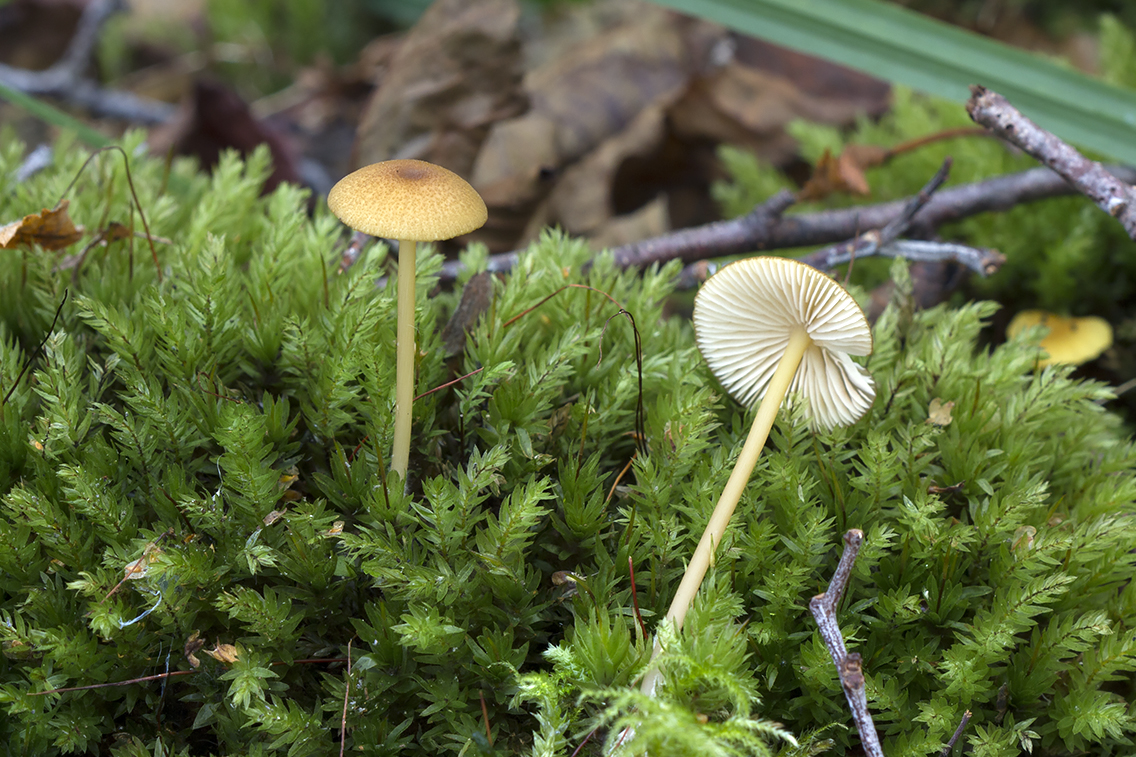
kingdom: Fungi
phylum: Basidiomycota
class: Agaricomycetes
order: Agaricales
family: Entolomataceae
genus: Entoloma
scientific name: Entoloma formosum
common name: brungul rødblad
